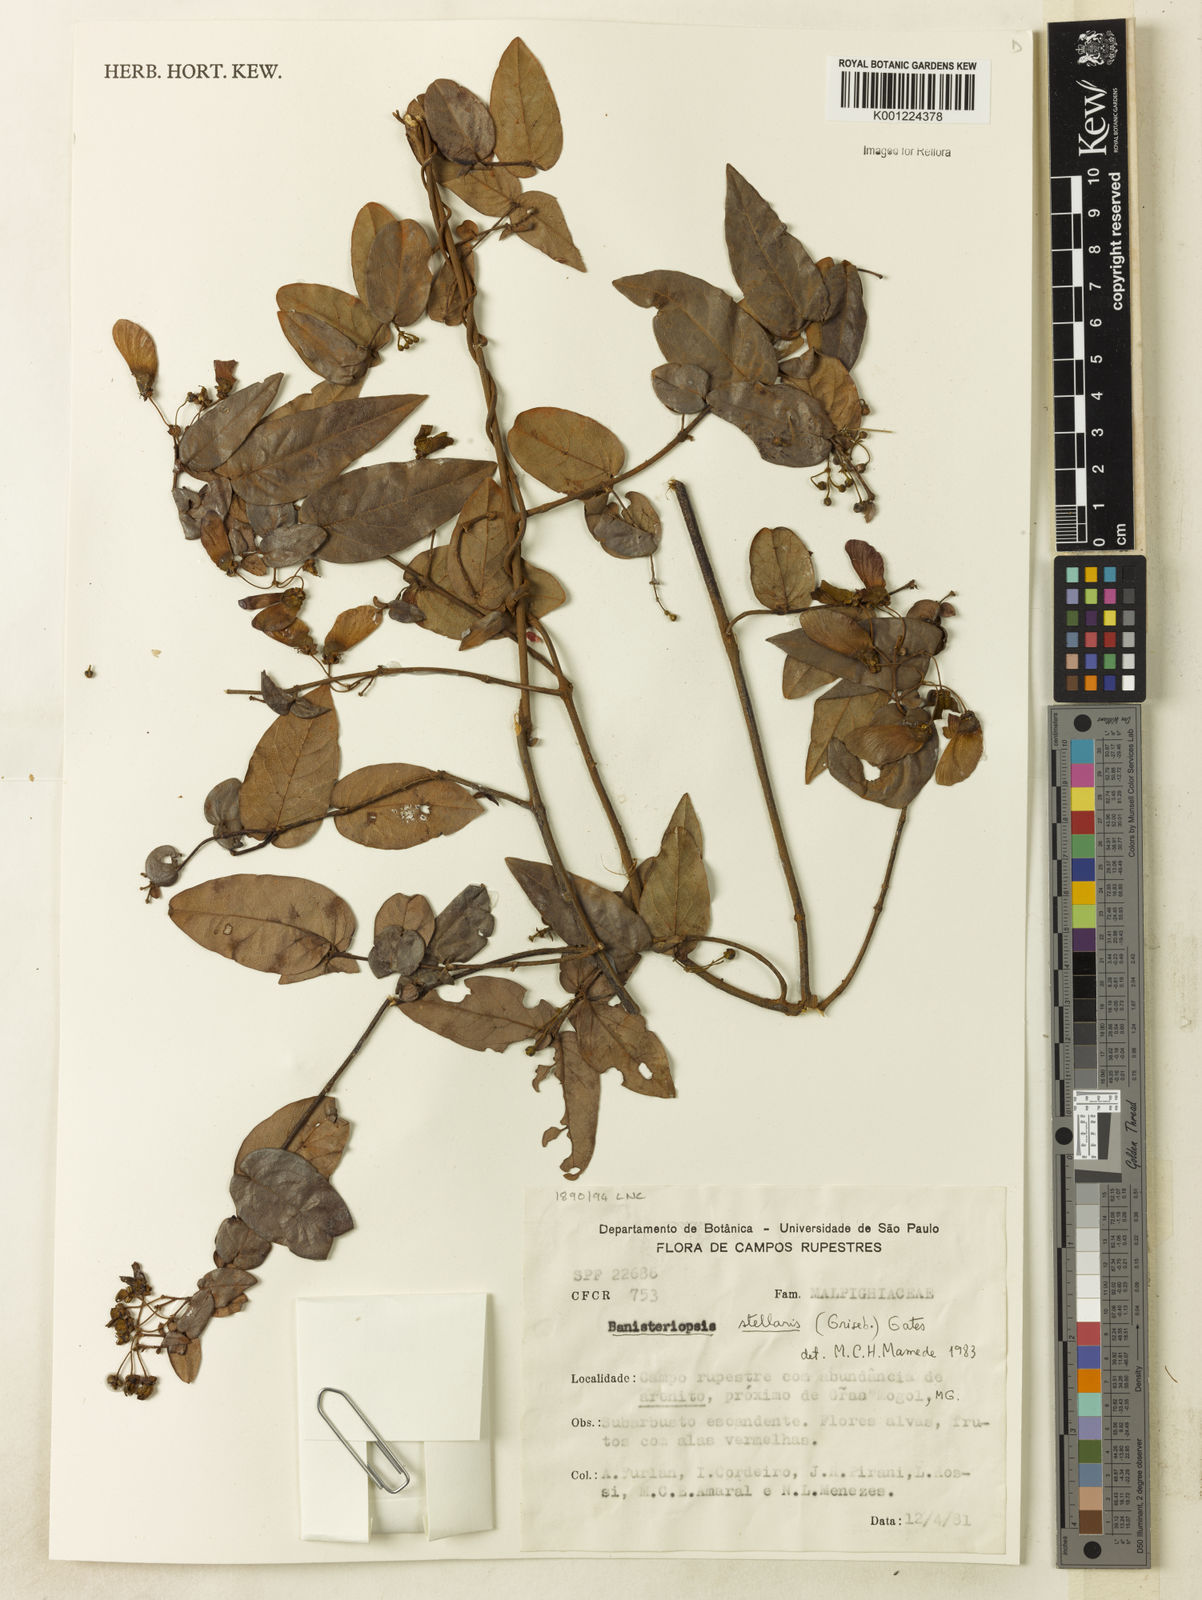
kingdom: Plantae
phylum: Tracheophyta
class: Magnoliopsida
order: Malpighiales
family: Malpighiaceae
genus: Banisteriopsis
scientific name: Banisteriopsis stellaris
